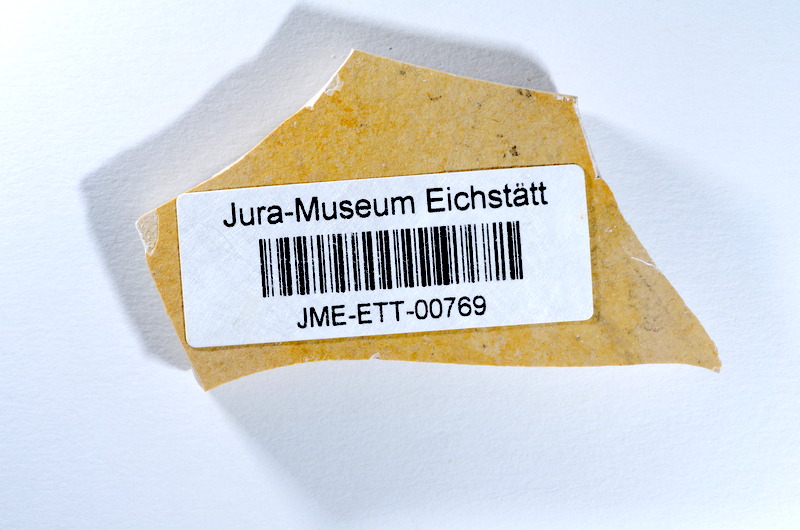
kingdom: Animalia
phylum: Chordata
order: Salmoniformes
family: Orthogonikleithridae
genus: Orthogonikleithrus
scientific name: Orthogonikleithrus hoelli
